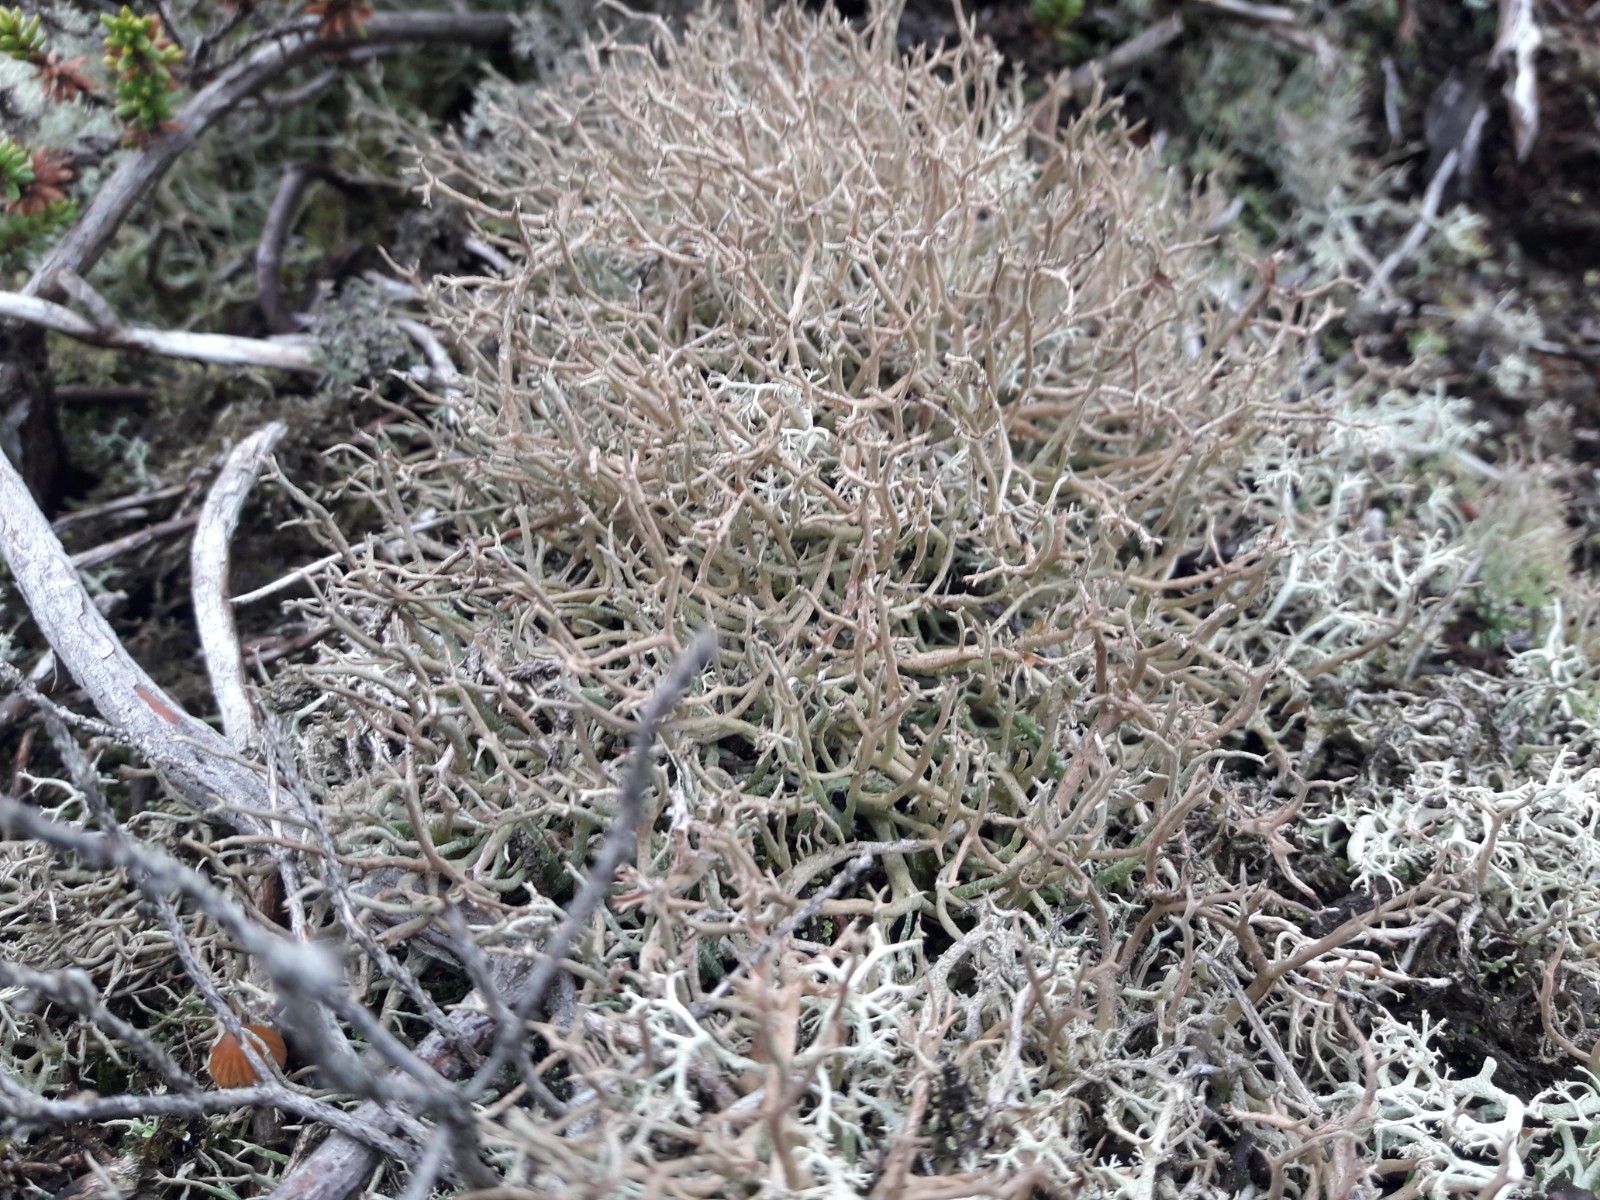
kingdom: Fungi
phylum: Ascomycota
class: Lecanoromycetes
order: Lecanorales
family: Cladoniaceae
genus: Cladonia
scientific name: Cladonia furcata
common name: kløftet bægerlav
